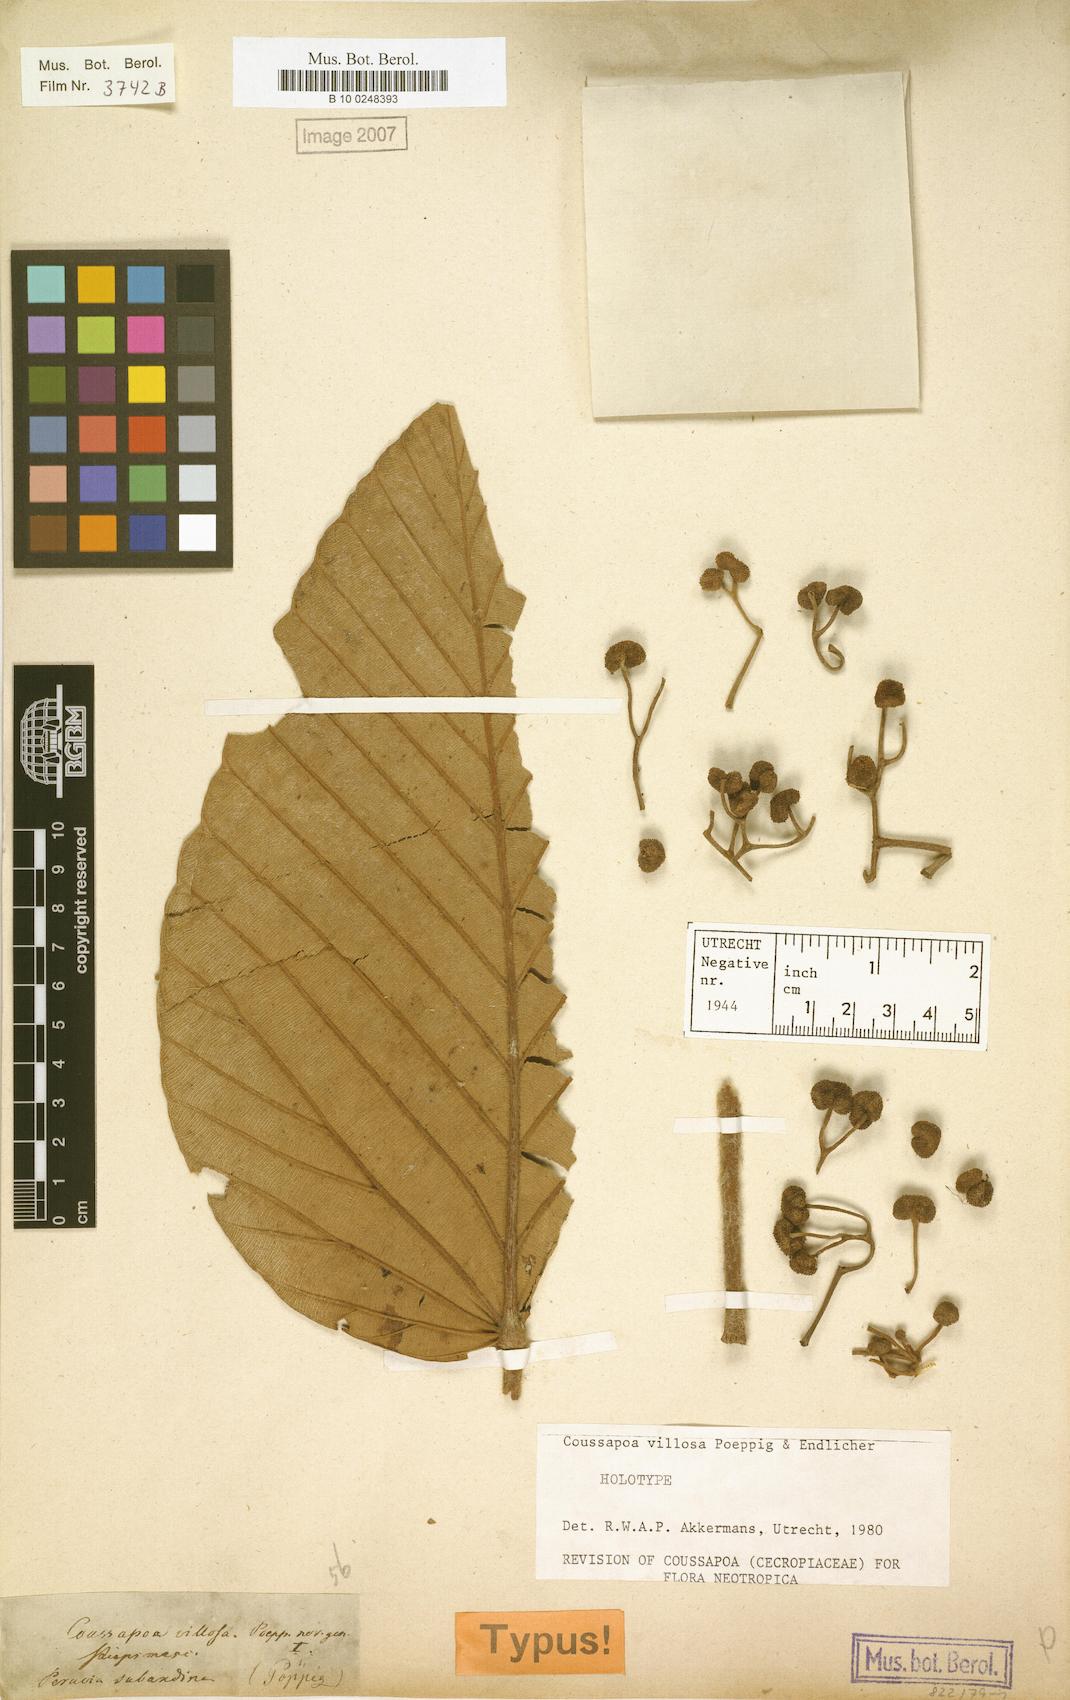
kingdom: Plantae
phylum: Tracheophyta
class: Magnoliopsida
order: Rosales
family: Urticaceae
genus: Coussapoa
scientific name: Coussapoa villosa
